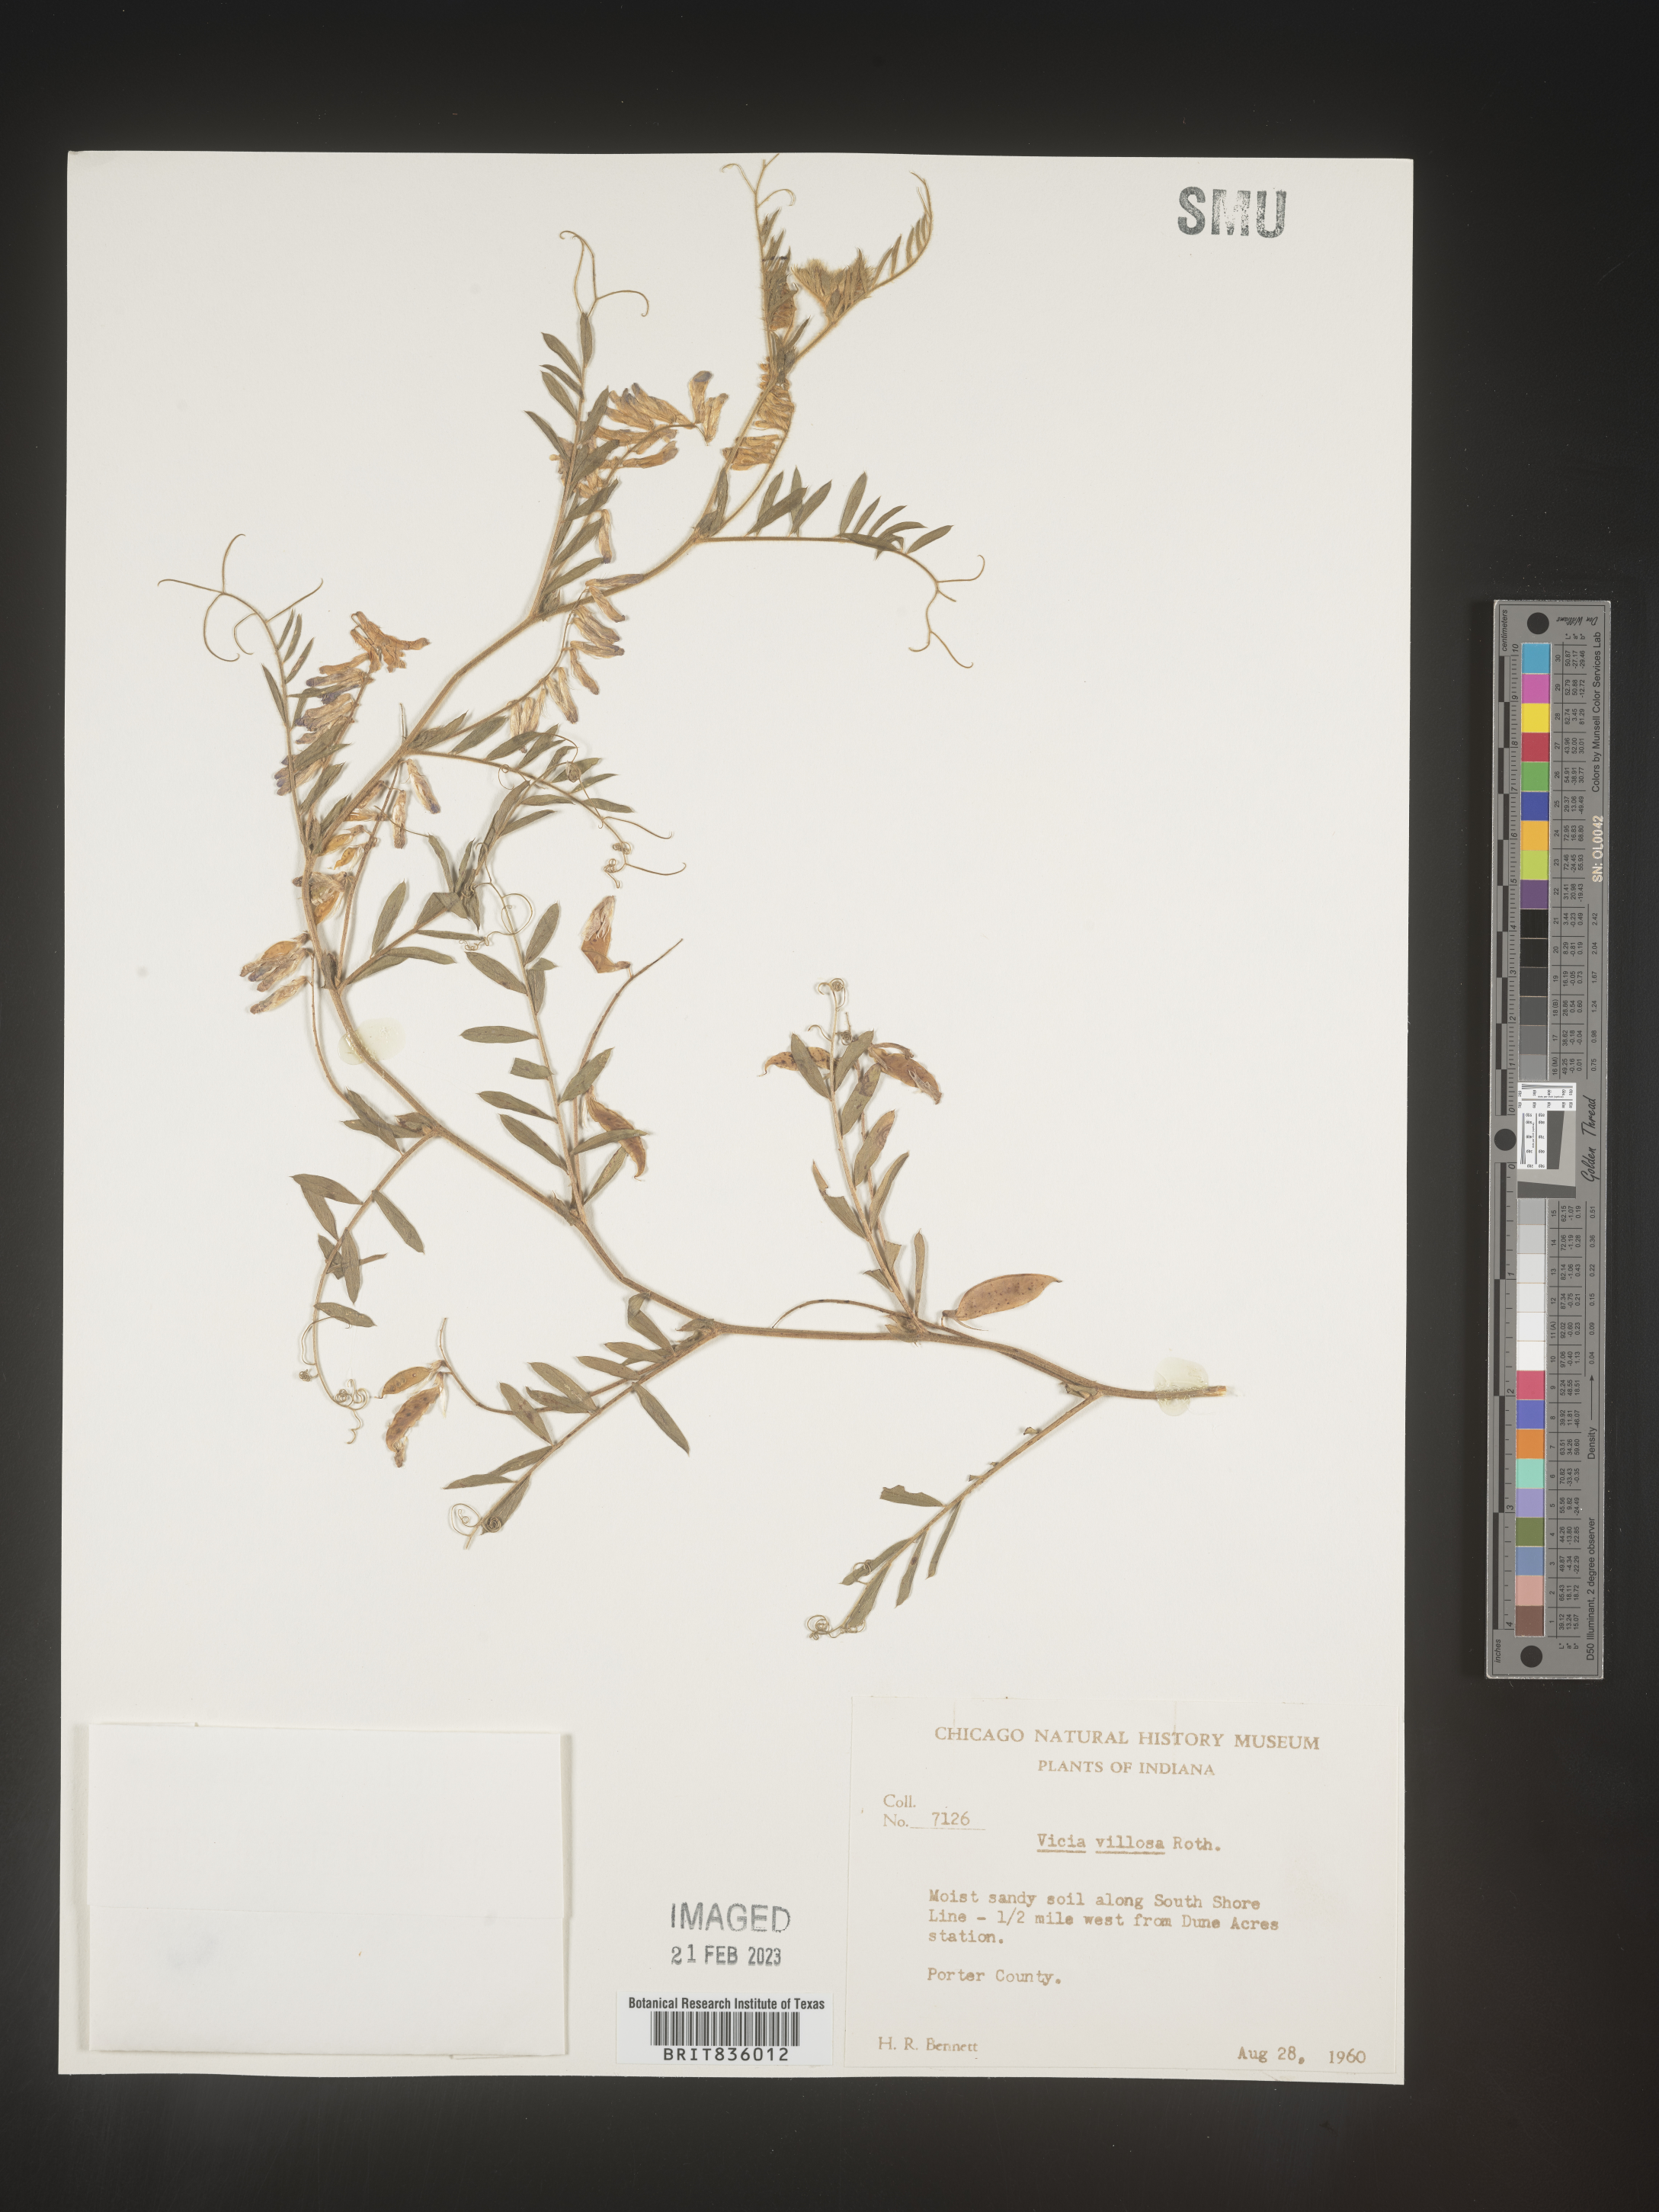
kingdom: Plantae
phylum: Tracheophyta
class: Magnoliopsida
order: Fabales
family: Fabaceae
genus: Vicia
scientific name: Vicia villosa
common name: Fodder vetch
